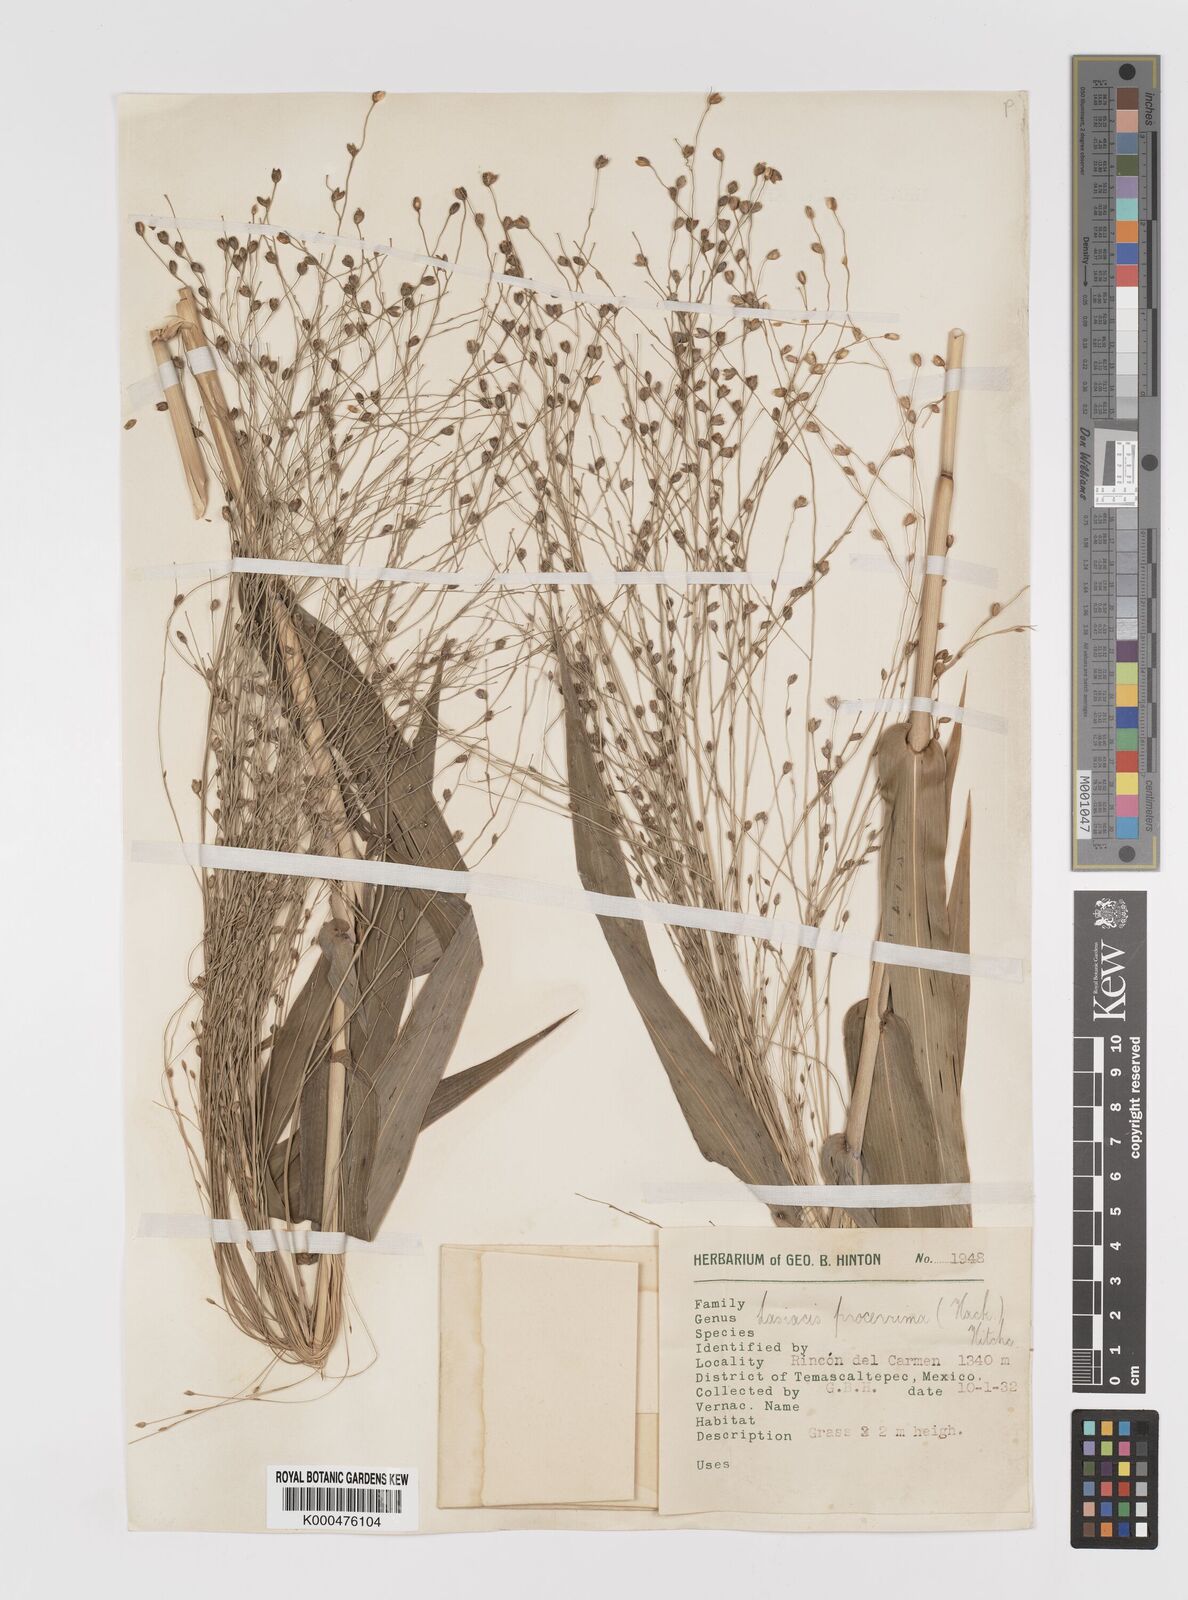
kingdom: Plantae
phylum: Tracheophyta
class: Liliopsida
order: Poales
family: Poaceae
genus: Lasiacis
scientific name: Lasiacis
